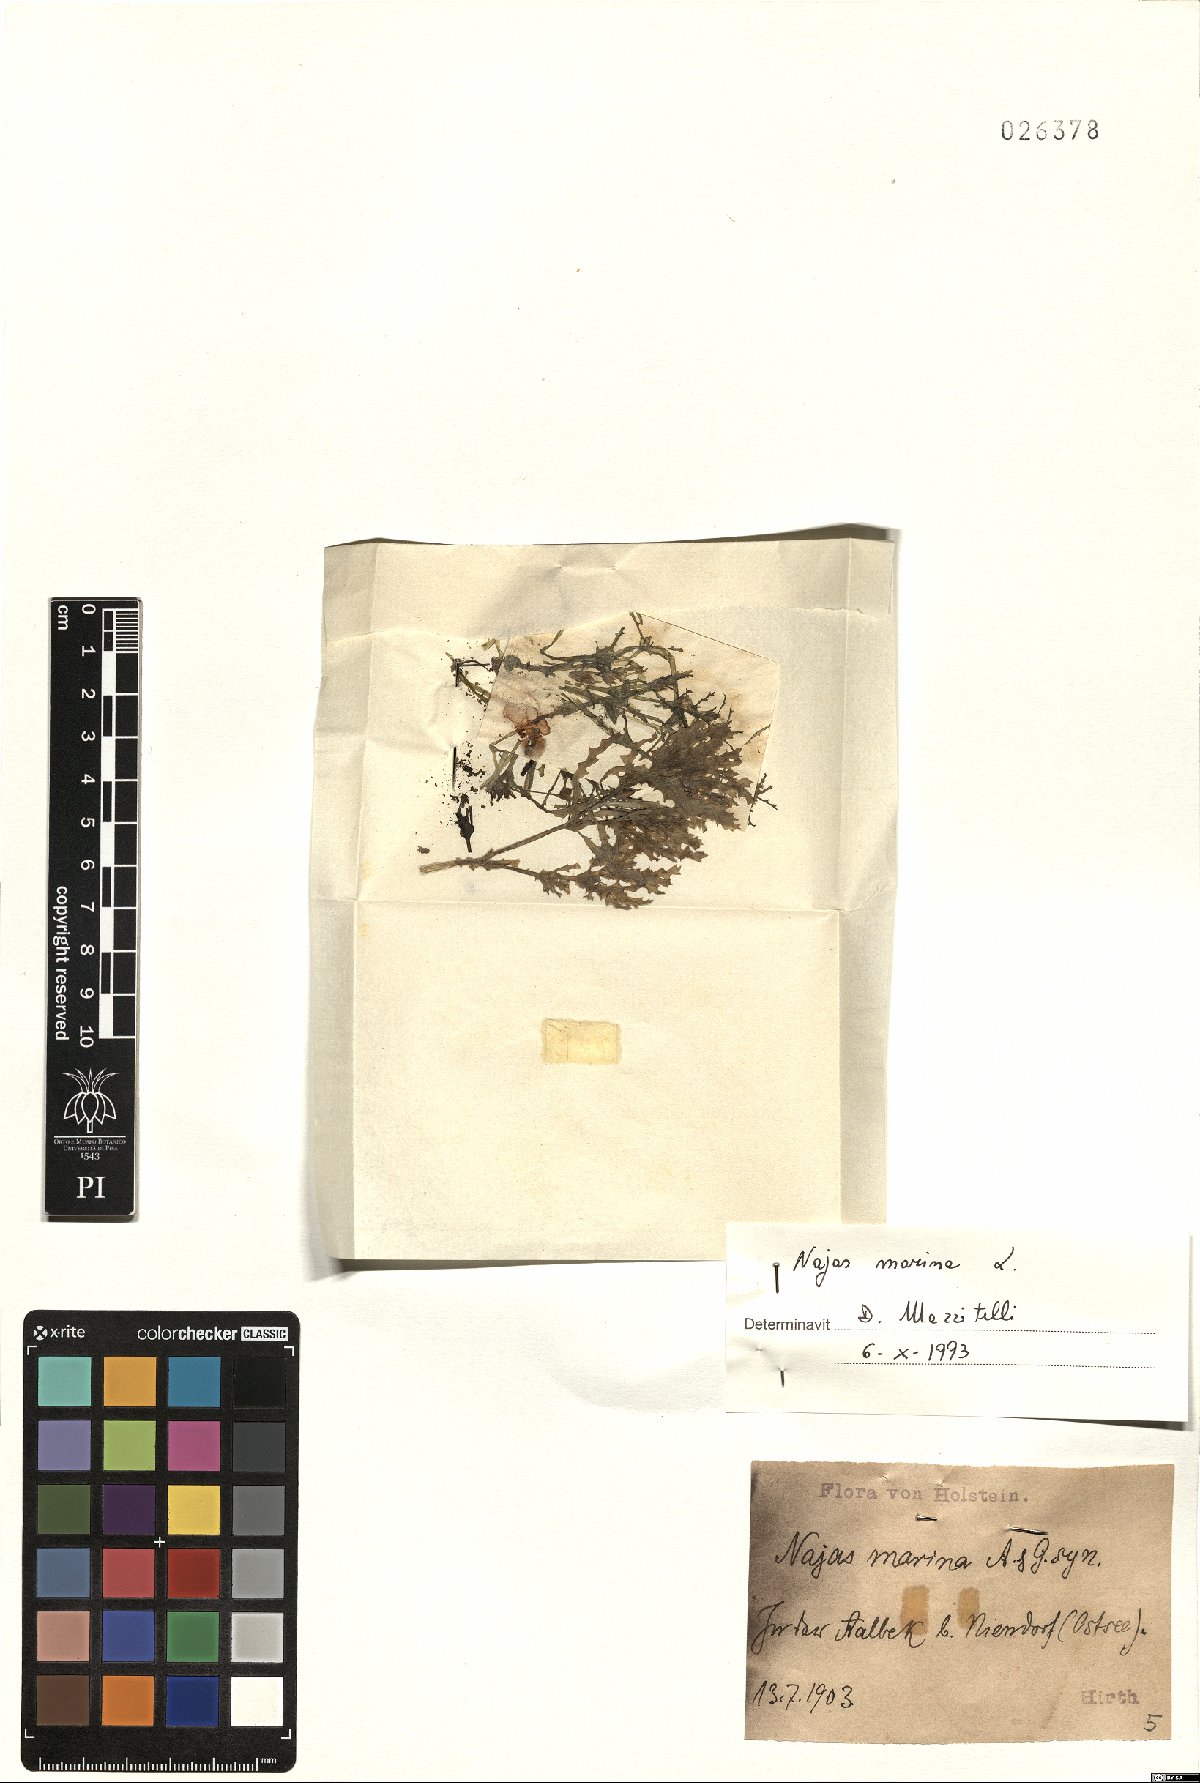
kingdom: Plantae
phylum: Tracheophyta
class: Liliopsida
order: Alismatales
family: Hydrocharitaceae
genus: Najas
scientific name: Najas marina
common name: Holly-leaved naiad
